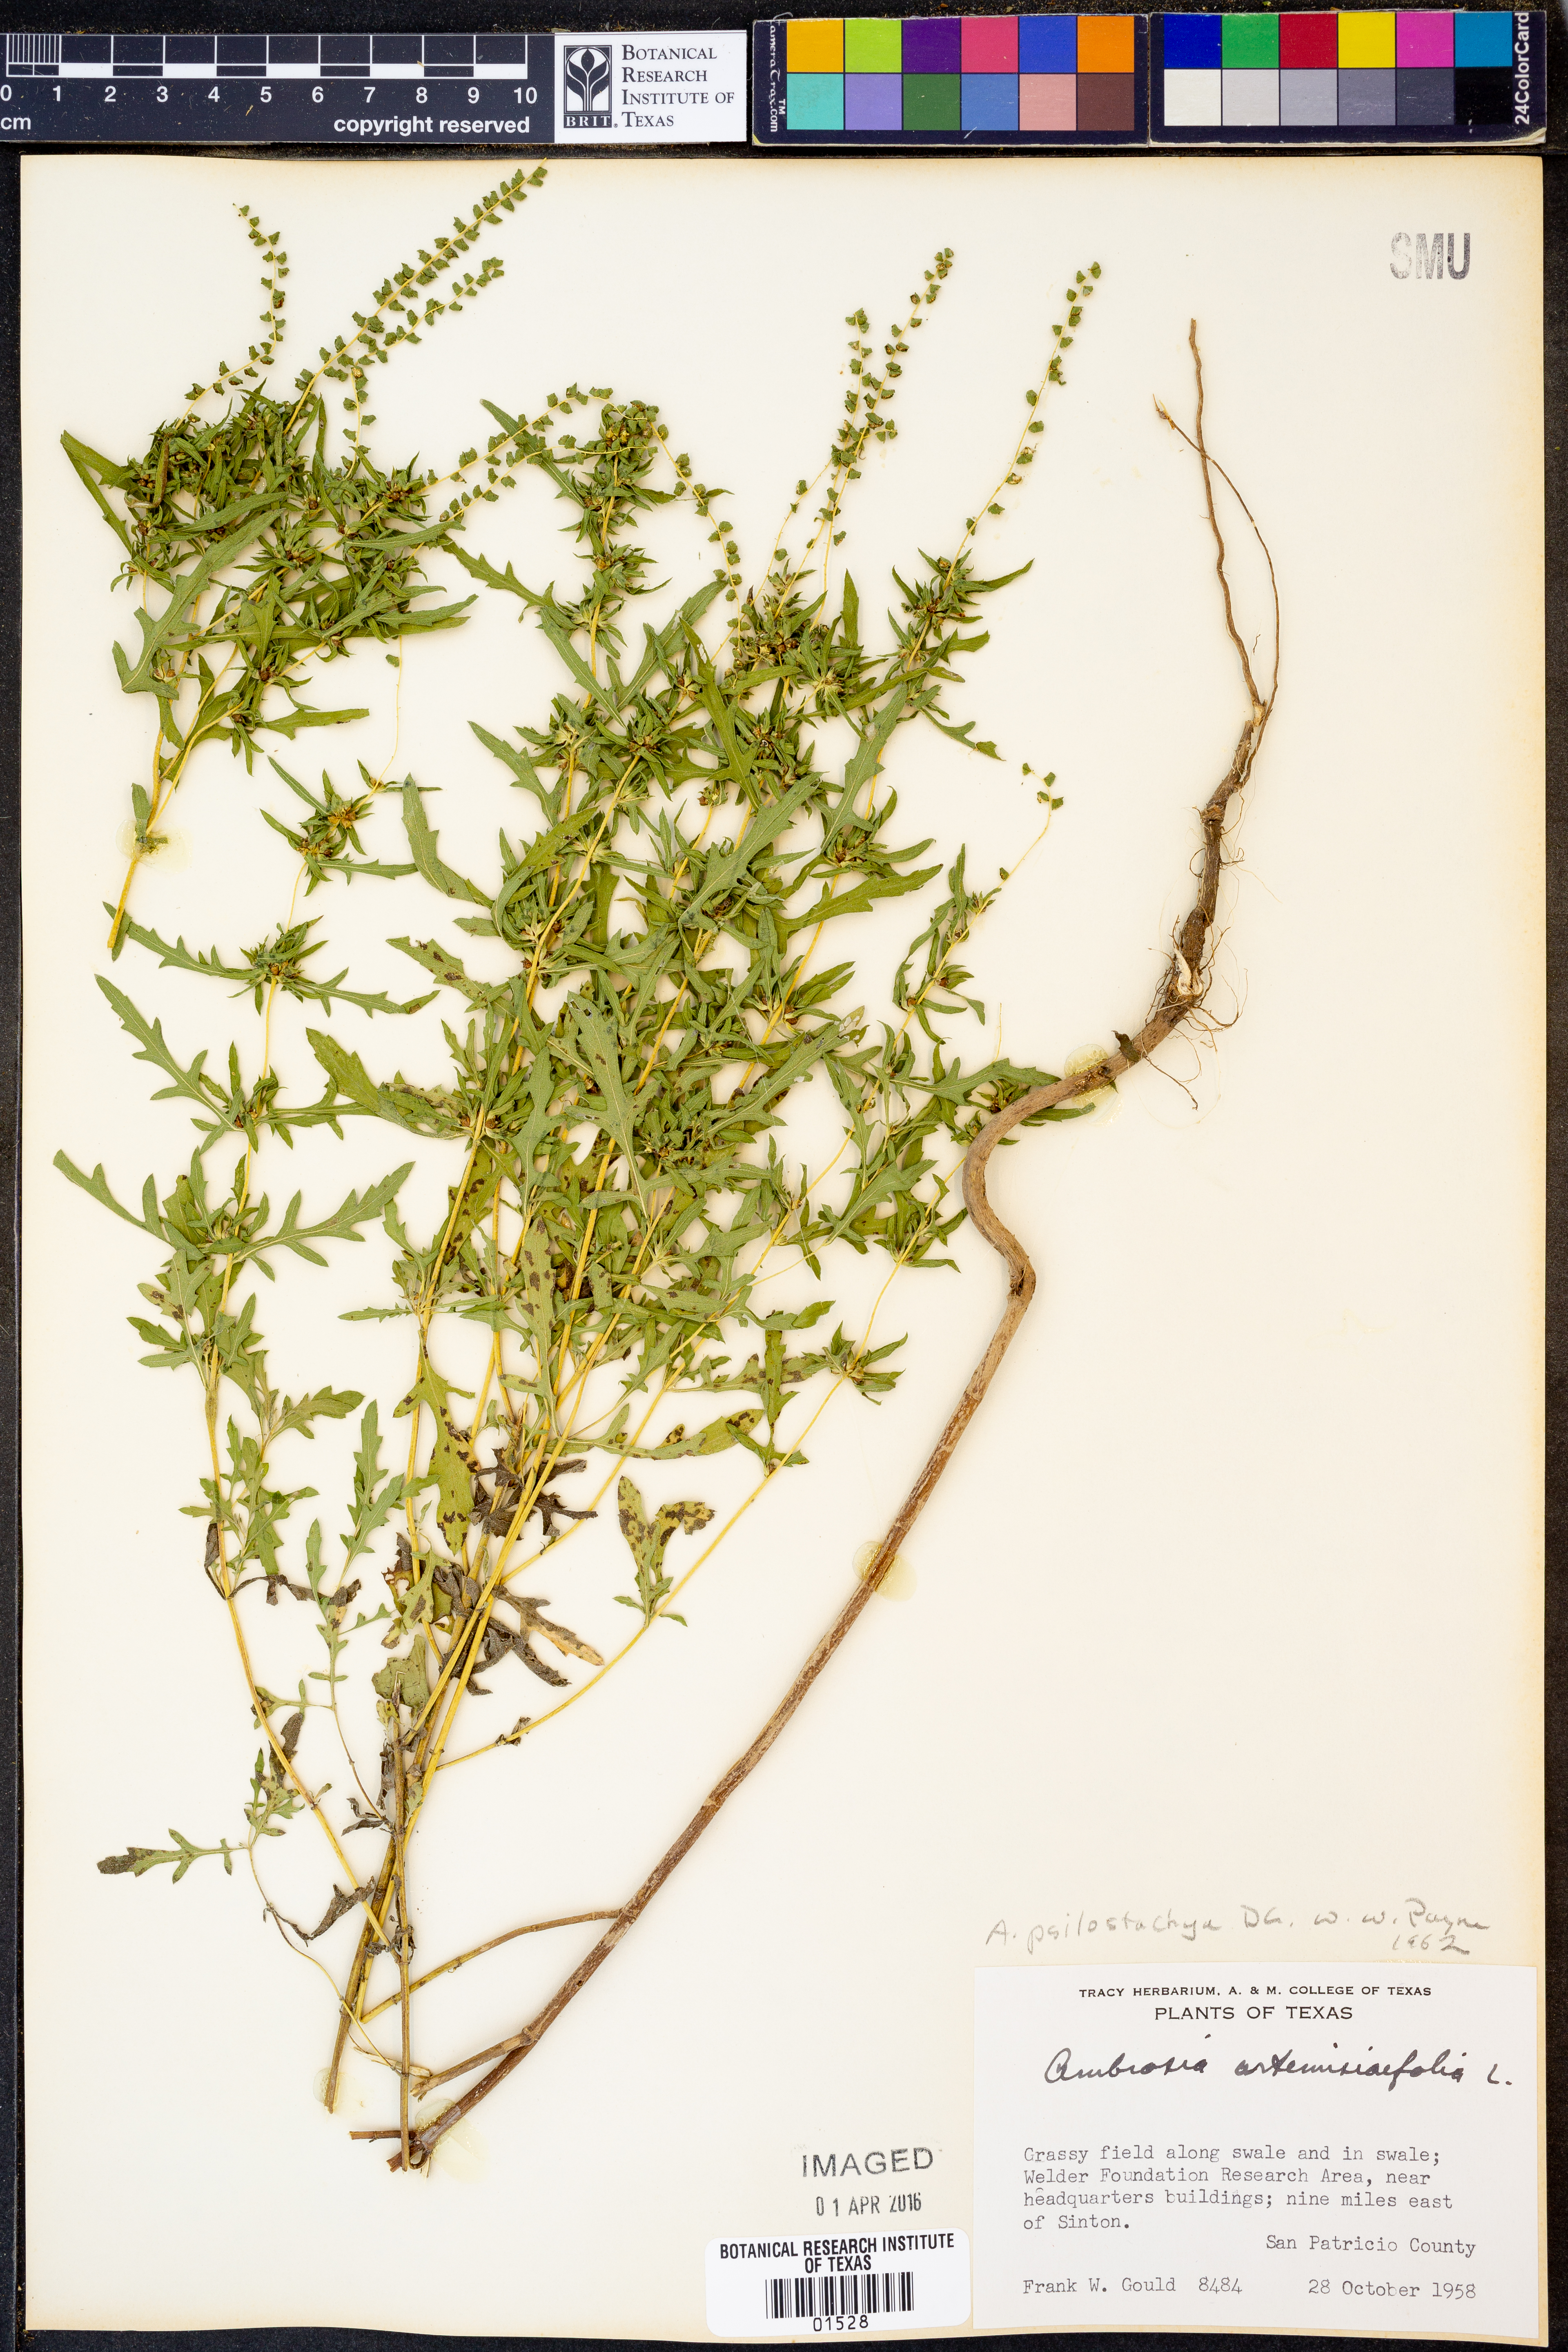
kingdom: Plantae
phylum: Tracheophyta
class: Magnoliopsida
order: Asterales
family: Asteraceae
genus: Ambrosia
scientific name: Ambrosia psilostachya
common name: Perennial ragweed
